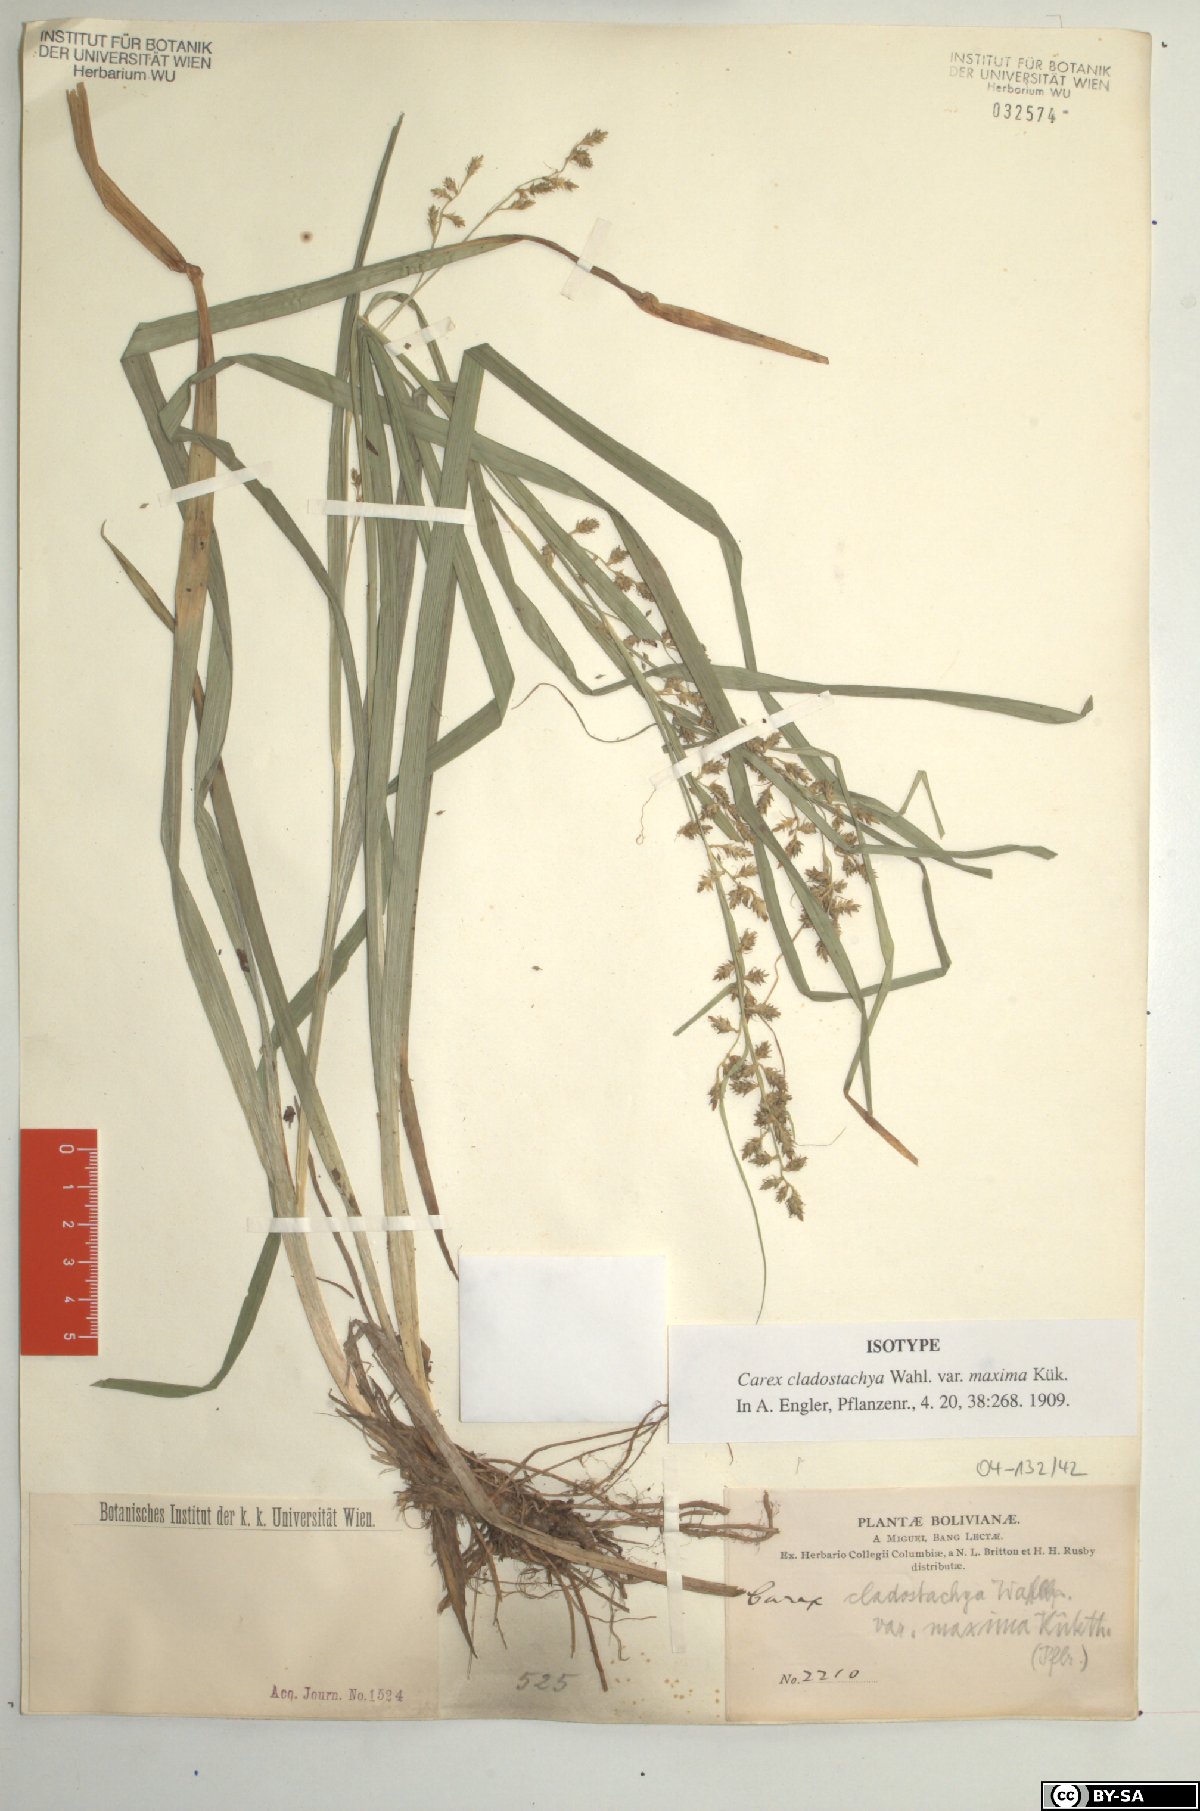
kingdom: Plantae
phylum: Tracheophyta
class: Liliopsida
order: Poales
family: Cyperaceae
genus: Carex
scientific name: Carex polystachya
